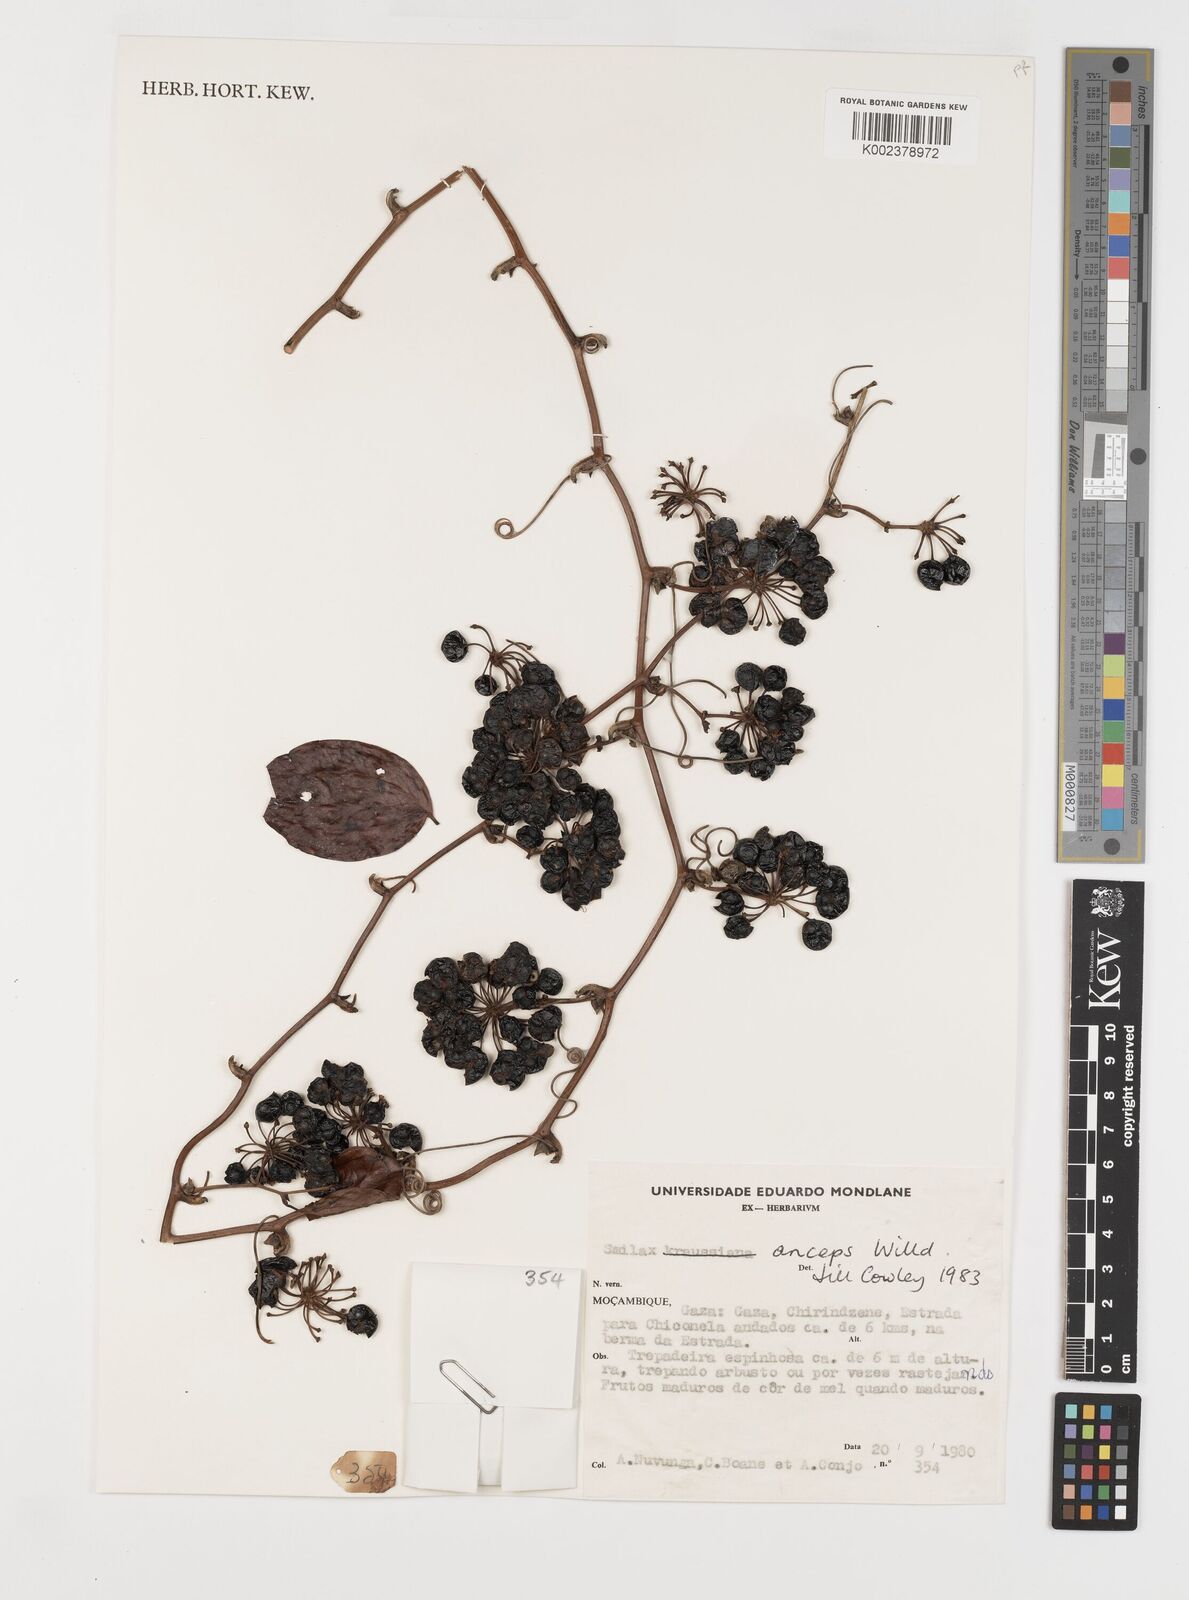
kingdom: Plantae
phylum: Tracheophyta
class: Liliopsida
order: Liliales
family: Smilacaceae
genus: Smilax
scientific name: Smilax anceps
